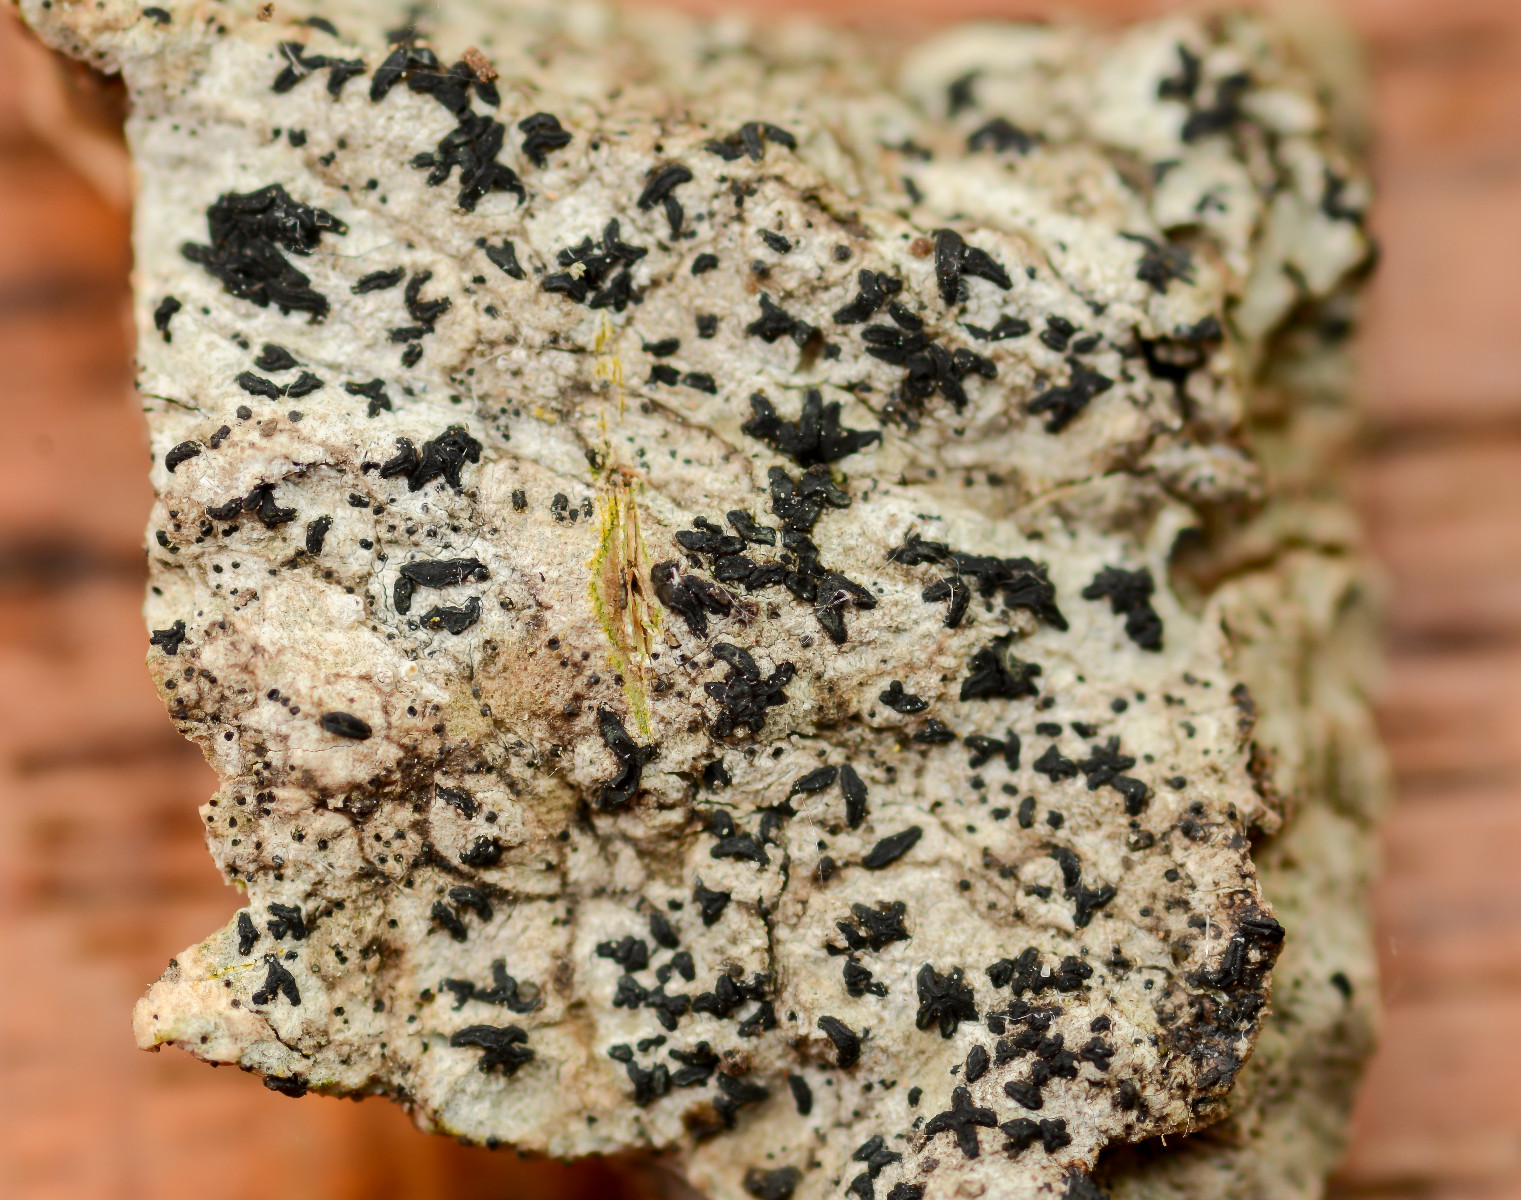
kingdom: Fungi
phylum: Ascomycota
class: Arthoniomycetes
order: Arthoniales
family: Lecanographaceae
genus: Alyxoria
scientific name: Alyxoria varia
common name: almindelig bogstavlav
